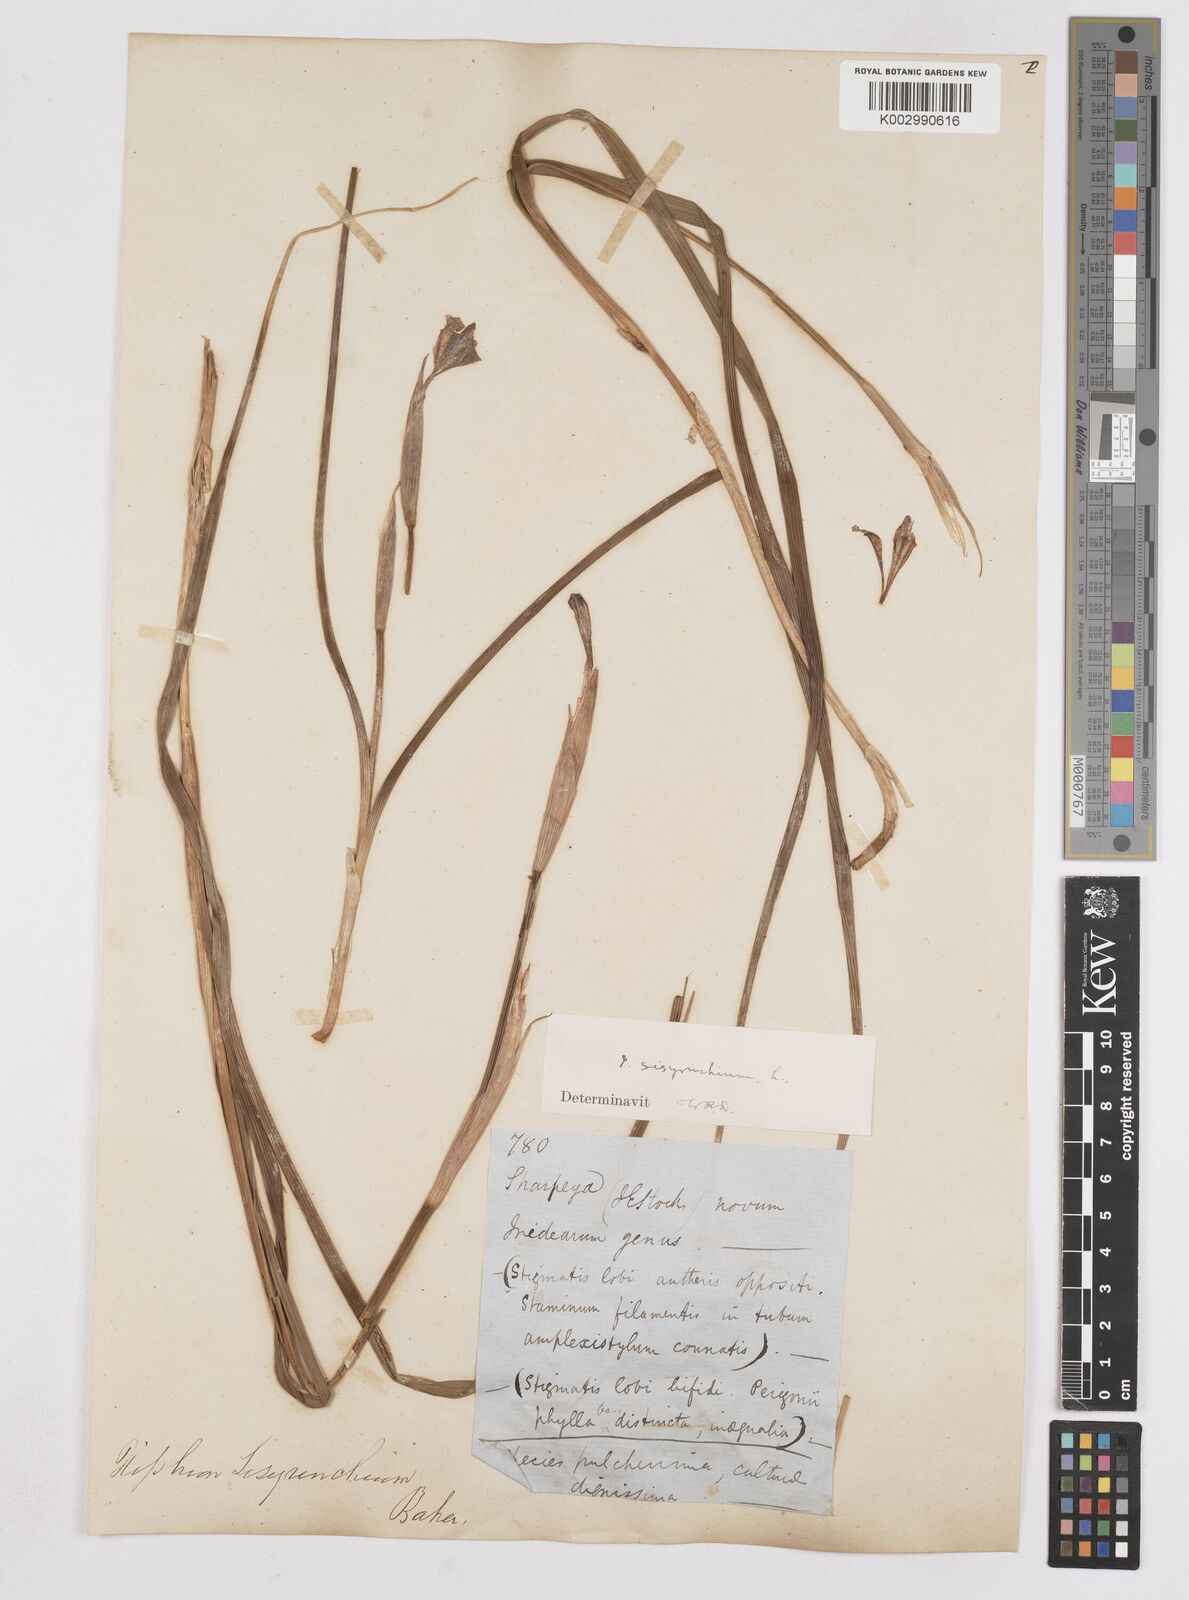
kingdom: Plantae
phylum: Tracheophyta
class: Liliopsida
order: Asparagales
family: Iridaceae
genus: Moraea
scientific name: Moraea sisyrinchium
